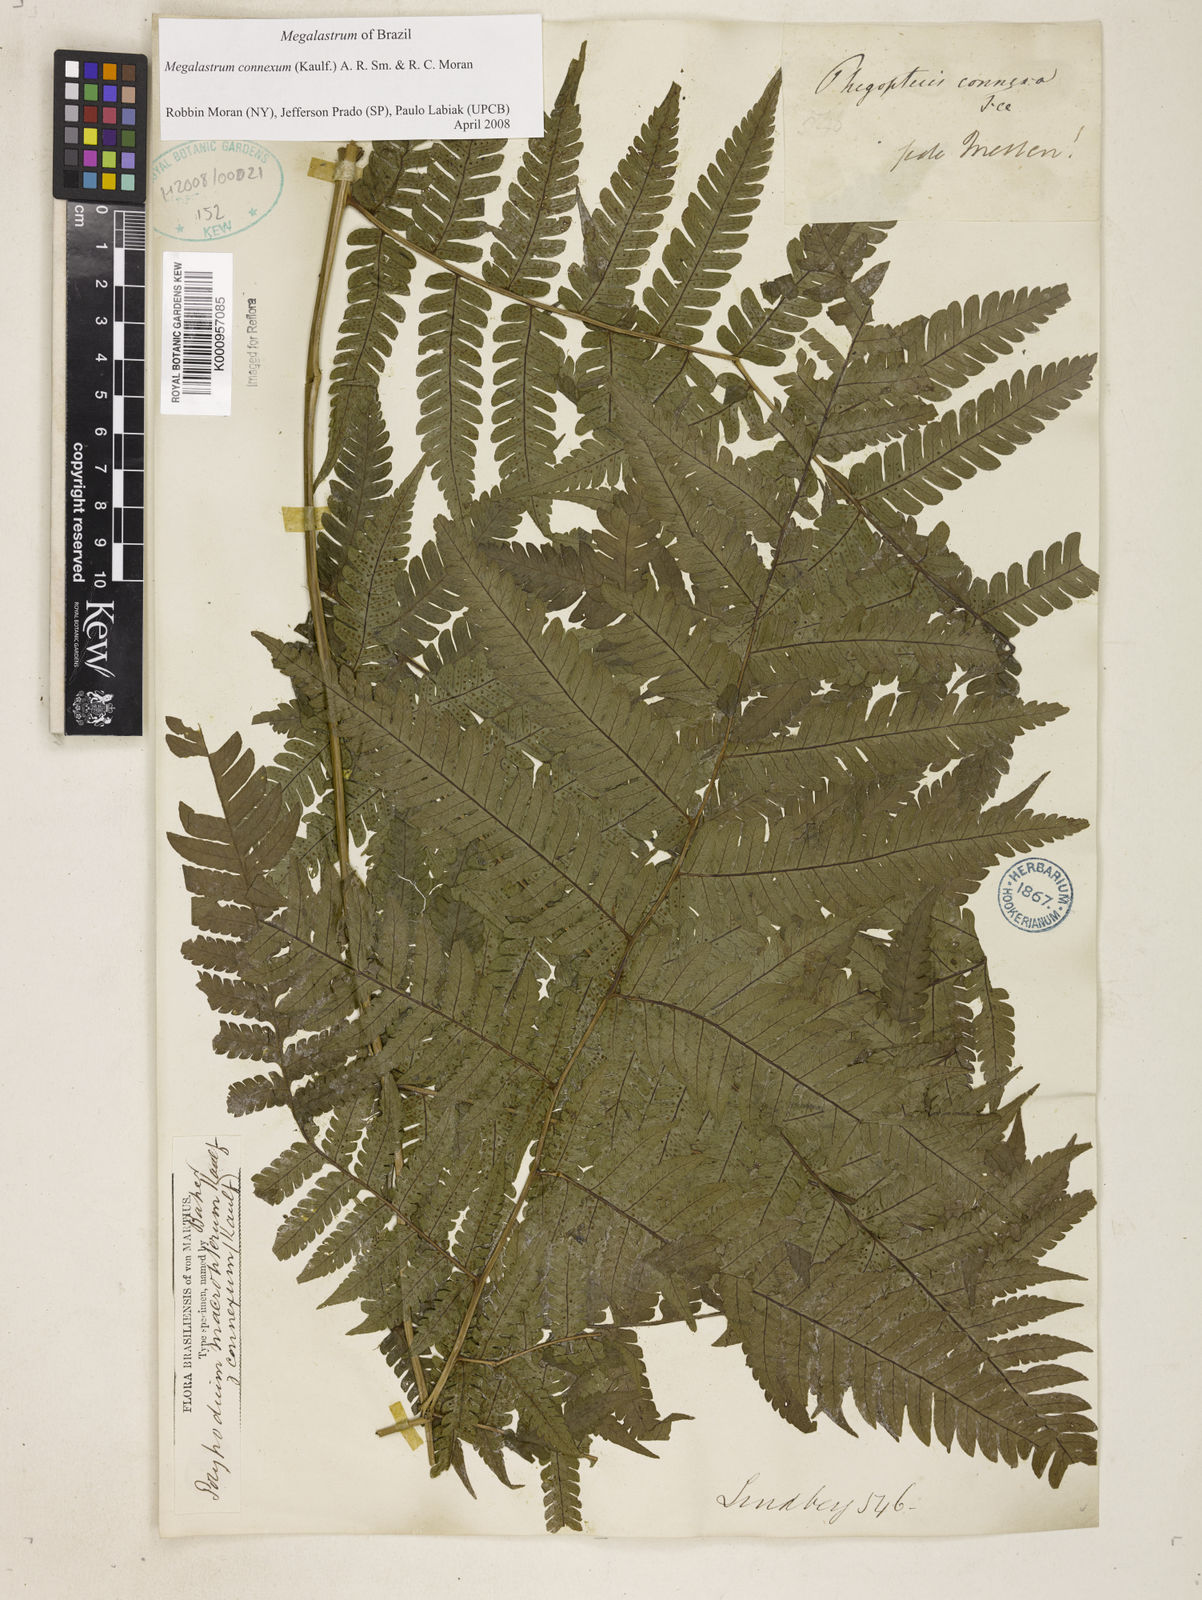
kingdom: Plantae
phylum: Tracheophyta
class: Polypodiopsida
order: Polypodiales
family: Dryopteridaceae
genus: Megalastrum
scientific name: Megalastrum connexum
